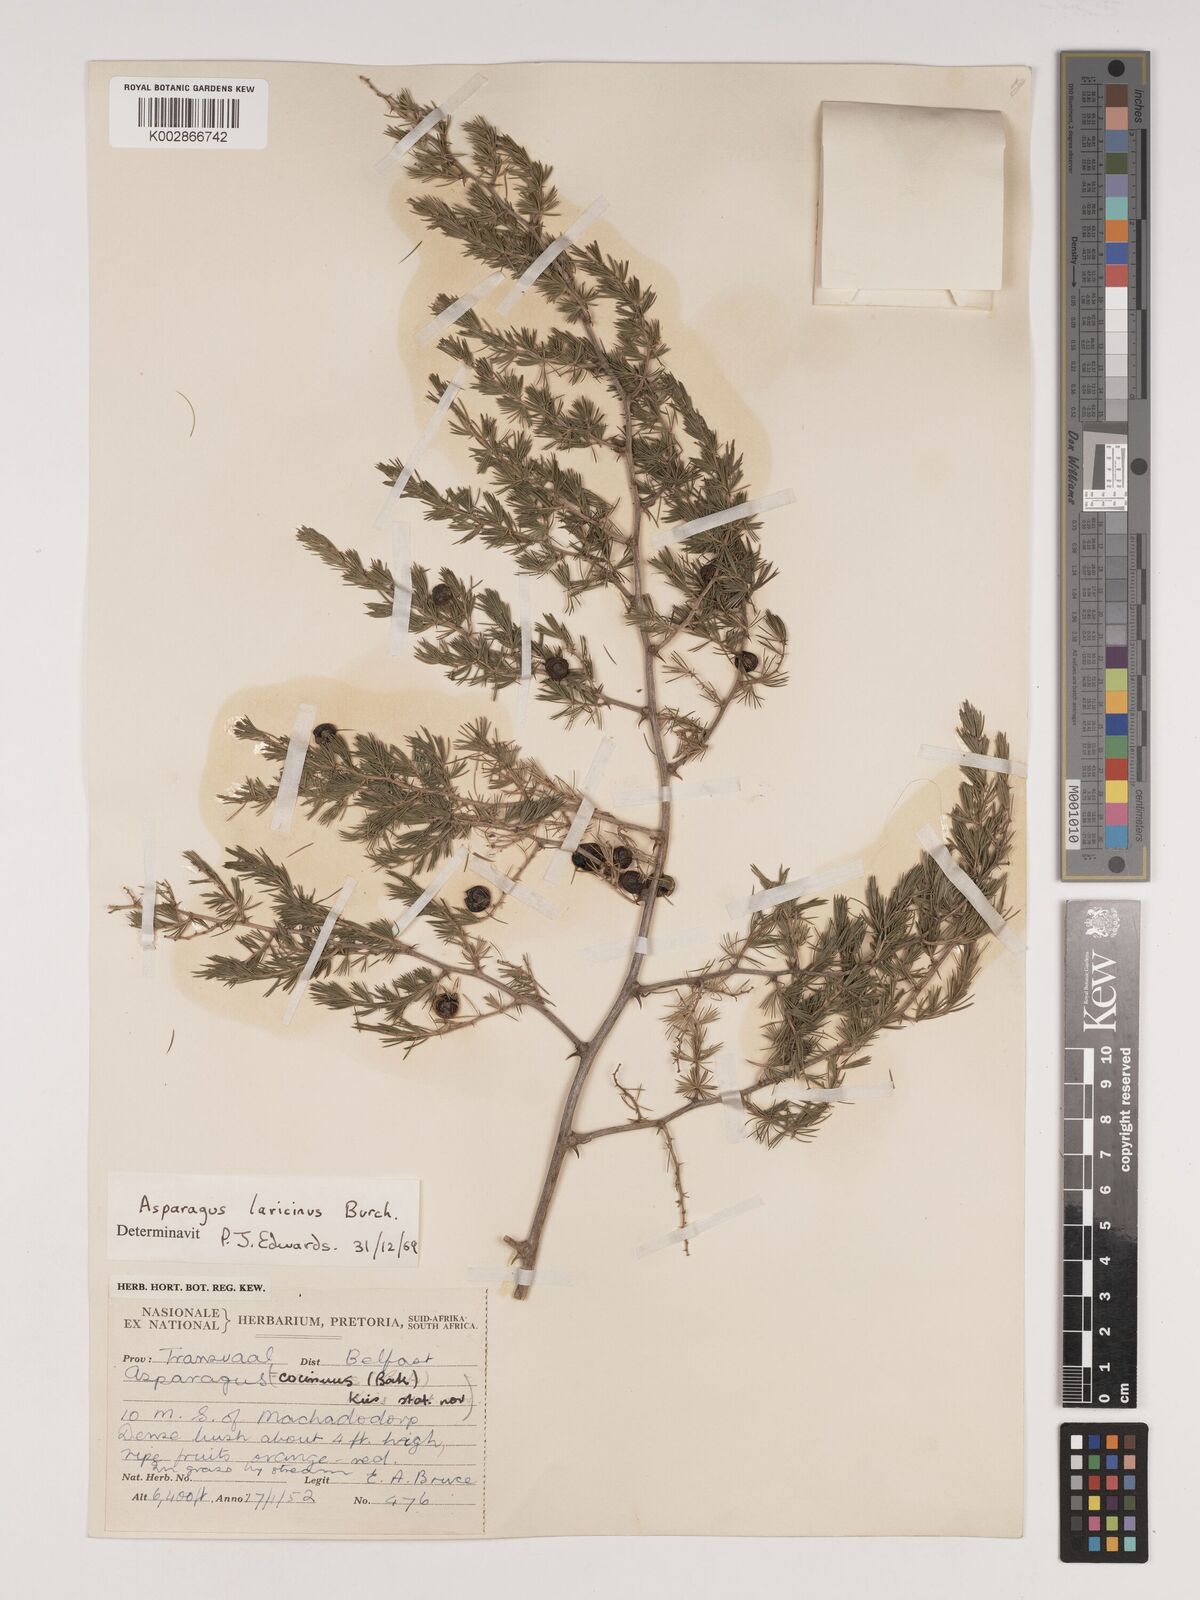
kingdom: Plantae
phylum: Tracheophyta
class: Liliopsida
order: Asparagales
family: Asparagaceae
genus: Asparagus
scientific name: Asparagus laricinus
